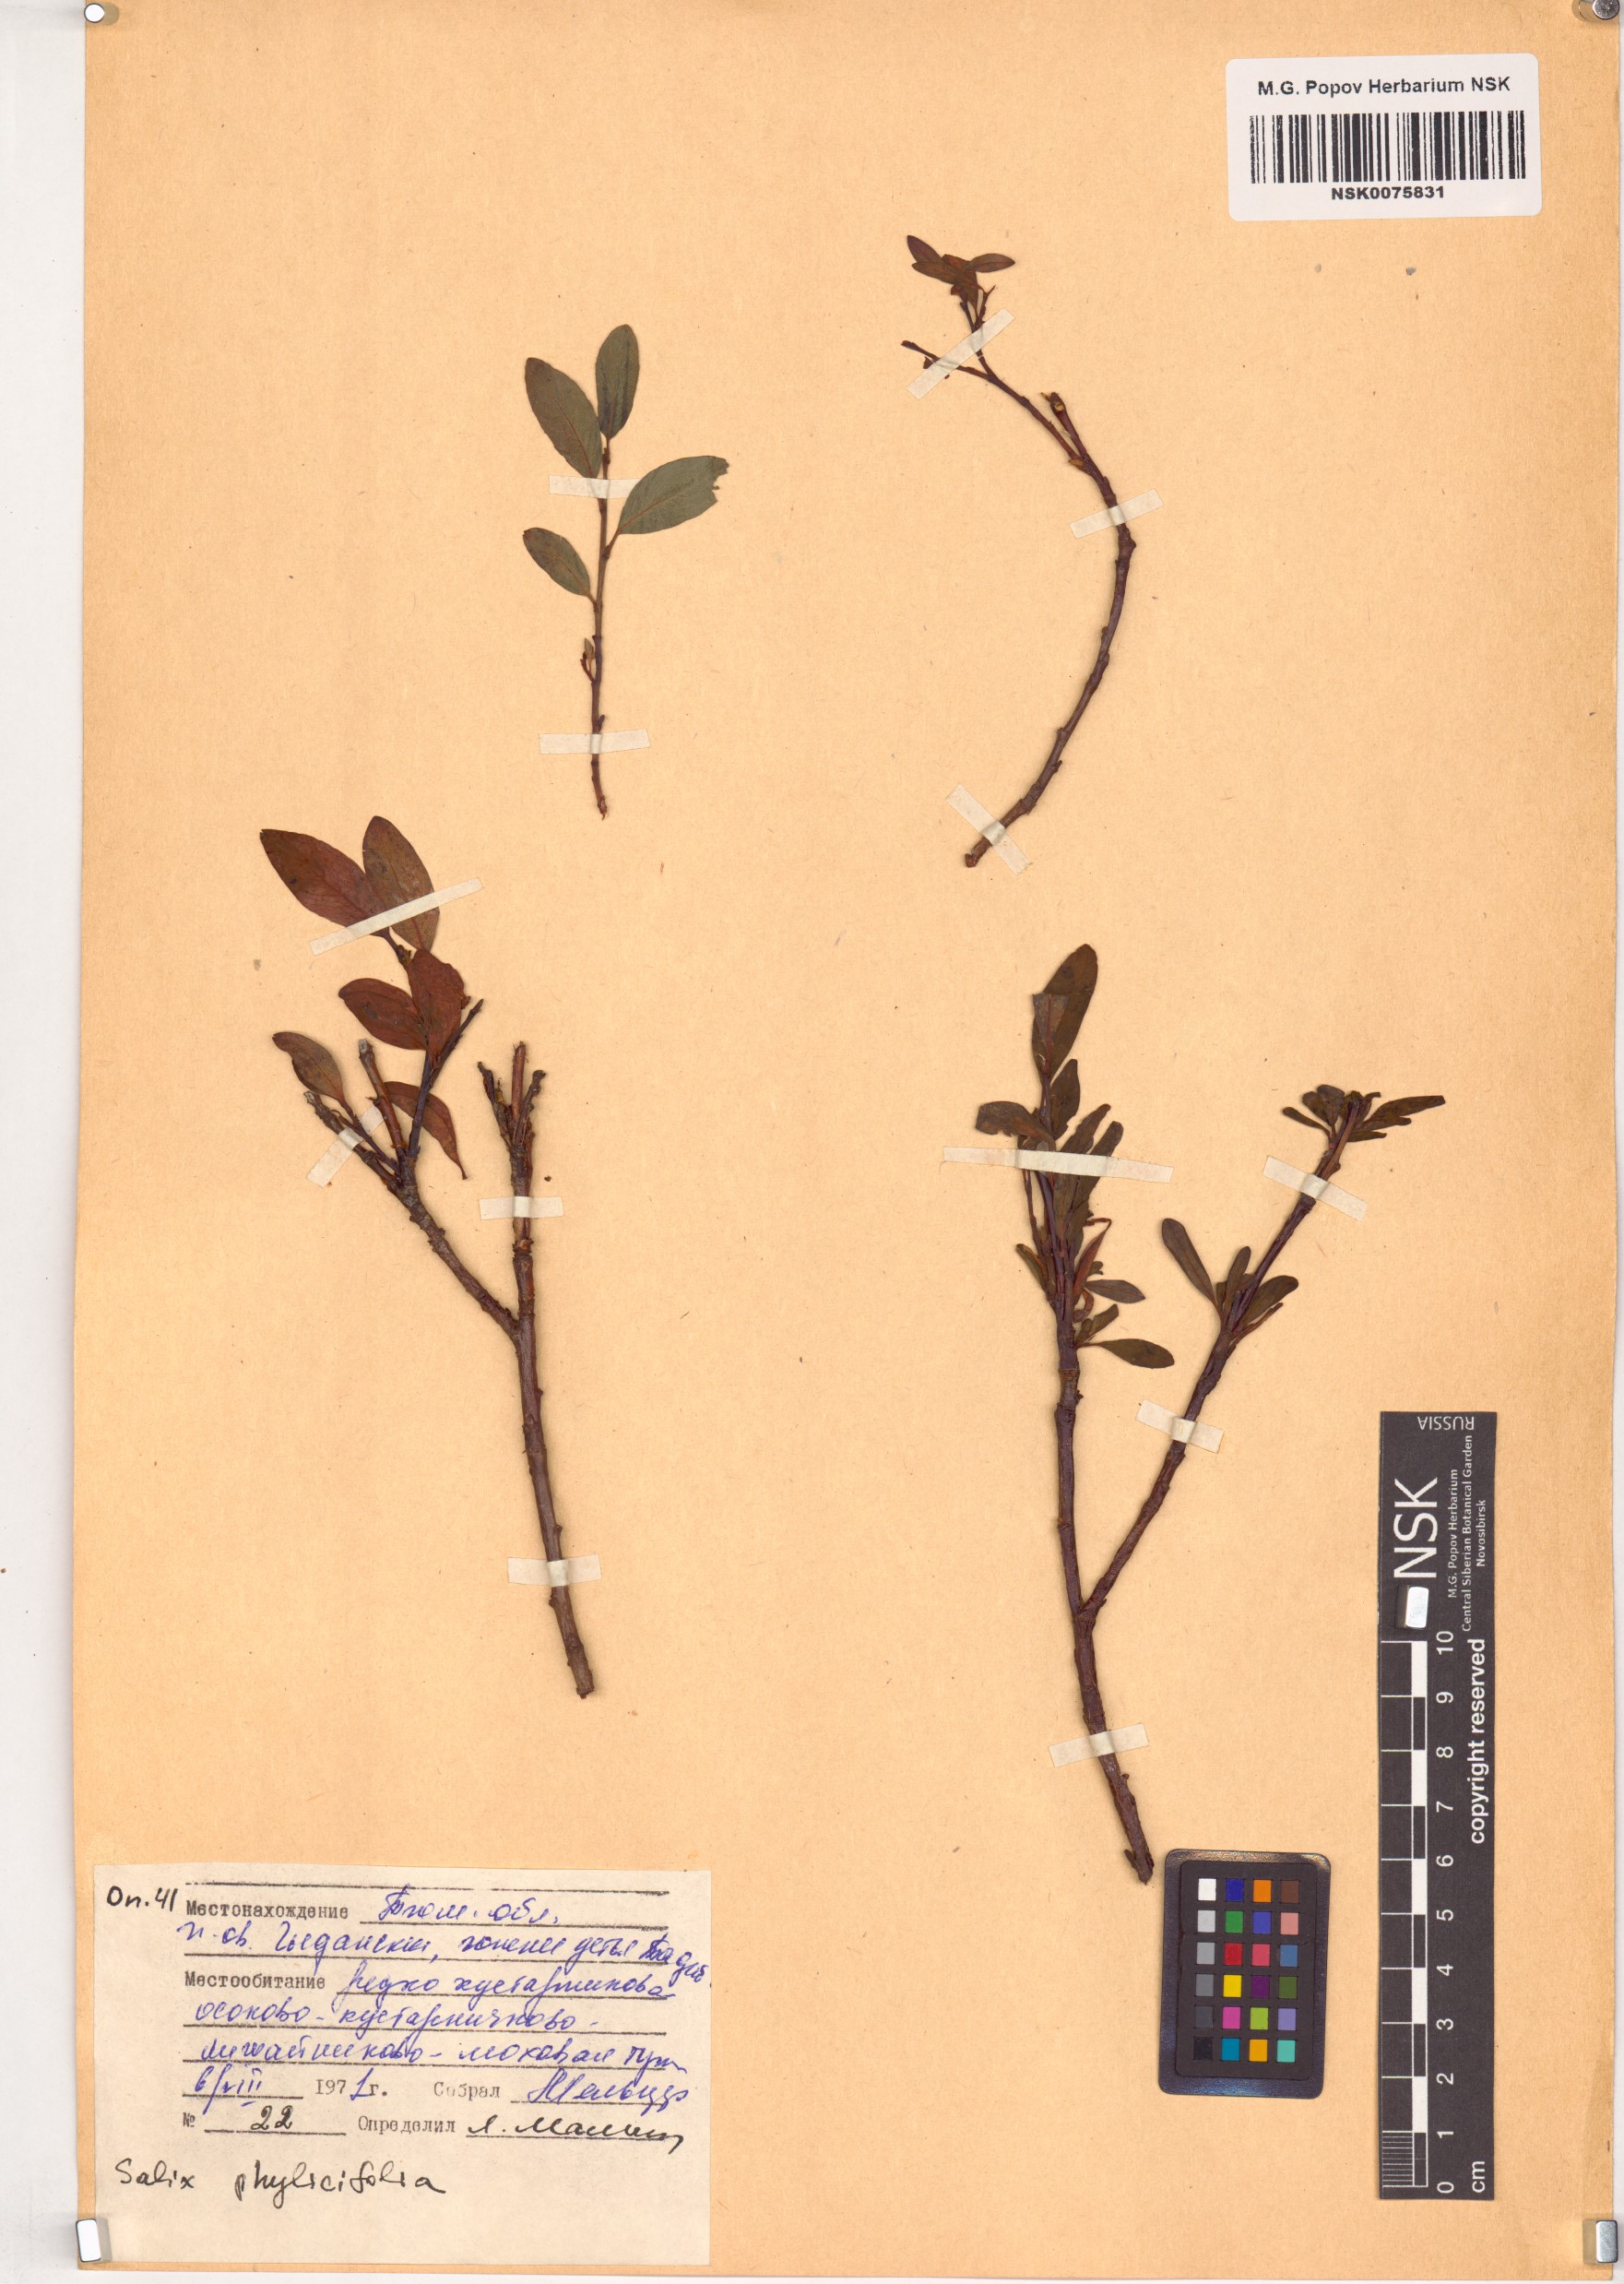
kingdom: Plantae
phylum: Tracheophyta
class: Magnoliopsida
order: Malpighiales
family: Salicaceae
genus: Salix
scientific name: Salix phylicifolia
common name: Tea-leaved willow
